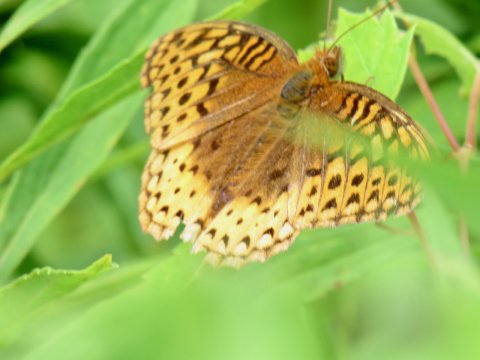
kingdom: Animalia
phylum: Arthropoda
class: Insecta
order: Lepidoptera
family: Nymphalidae
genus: Speyeria
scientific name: Speyeria cybele
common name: Great Spangled Fritillary
